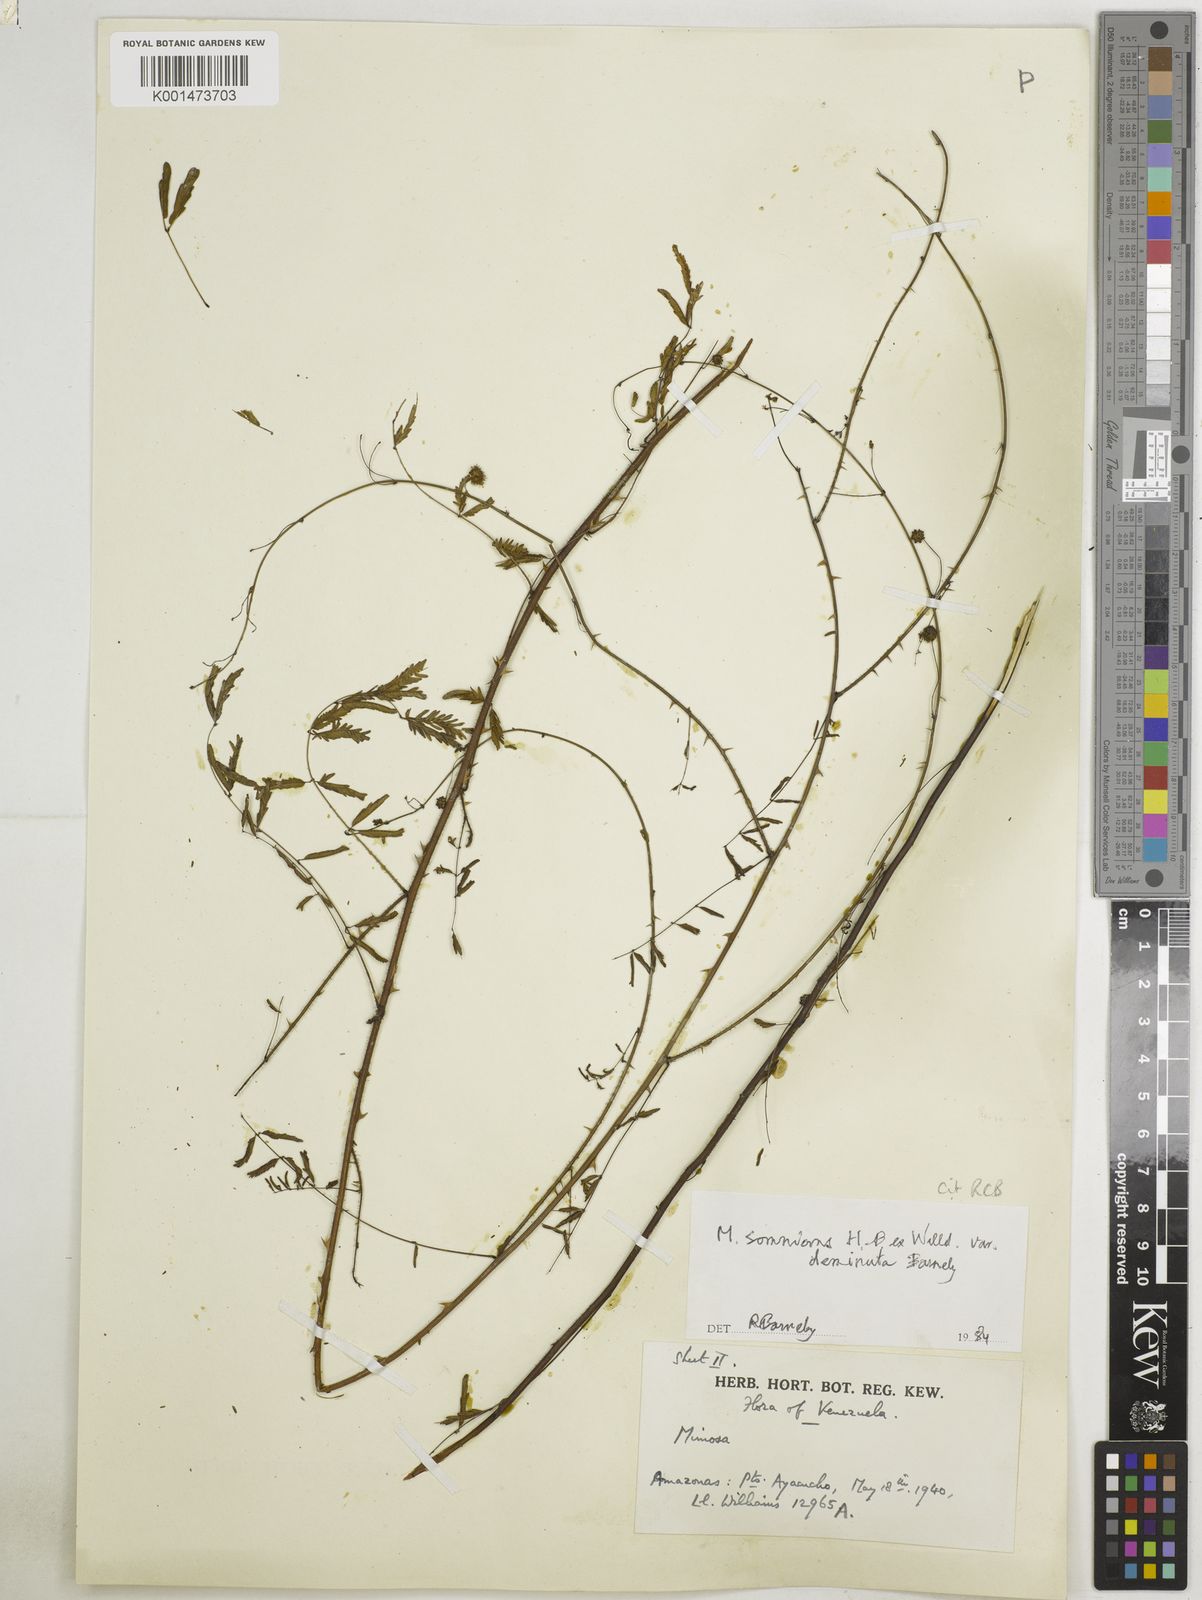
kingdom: Plantae
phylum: Tracheophyta
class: Magnoliopsida
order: Fabales
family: Fabaceae
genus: Mimosa
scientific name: Mimosa somnians
